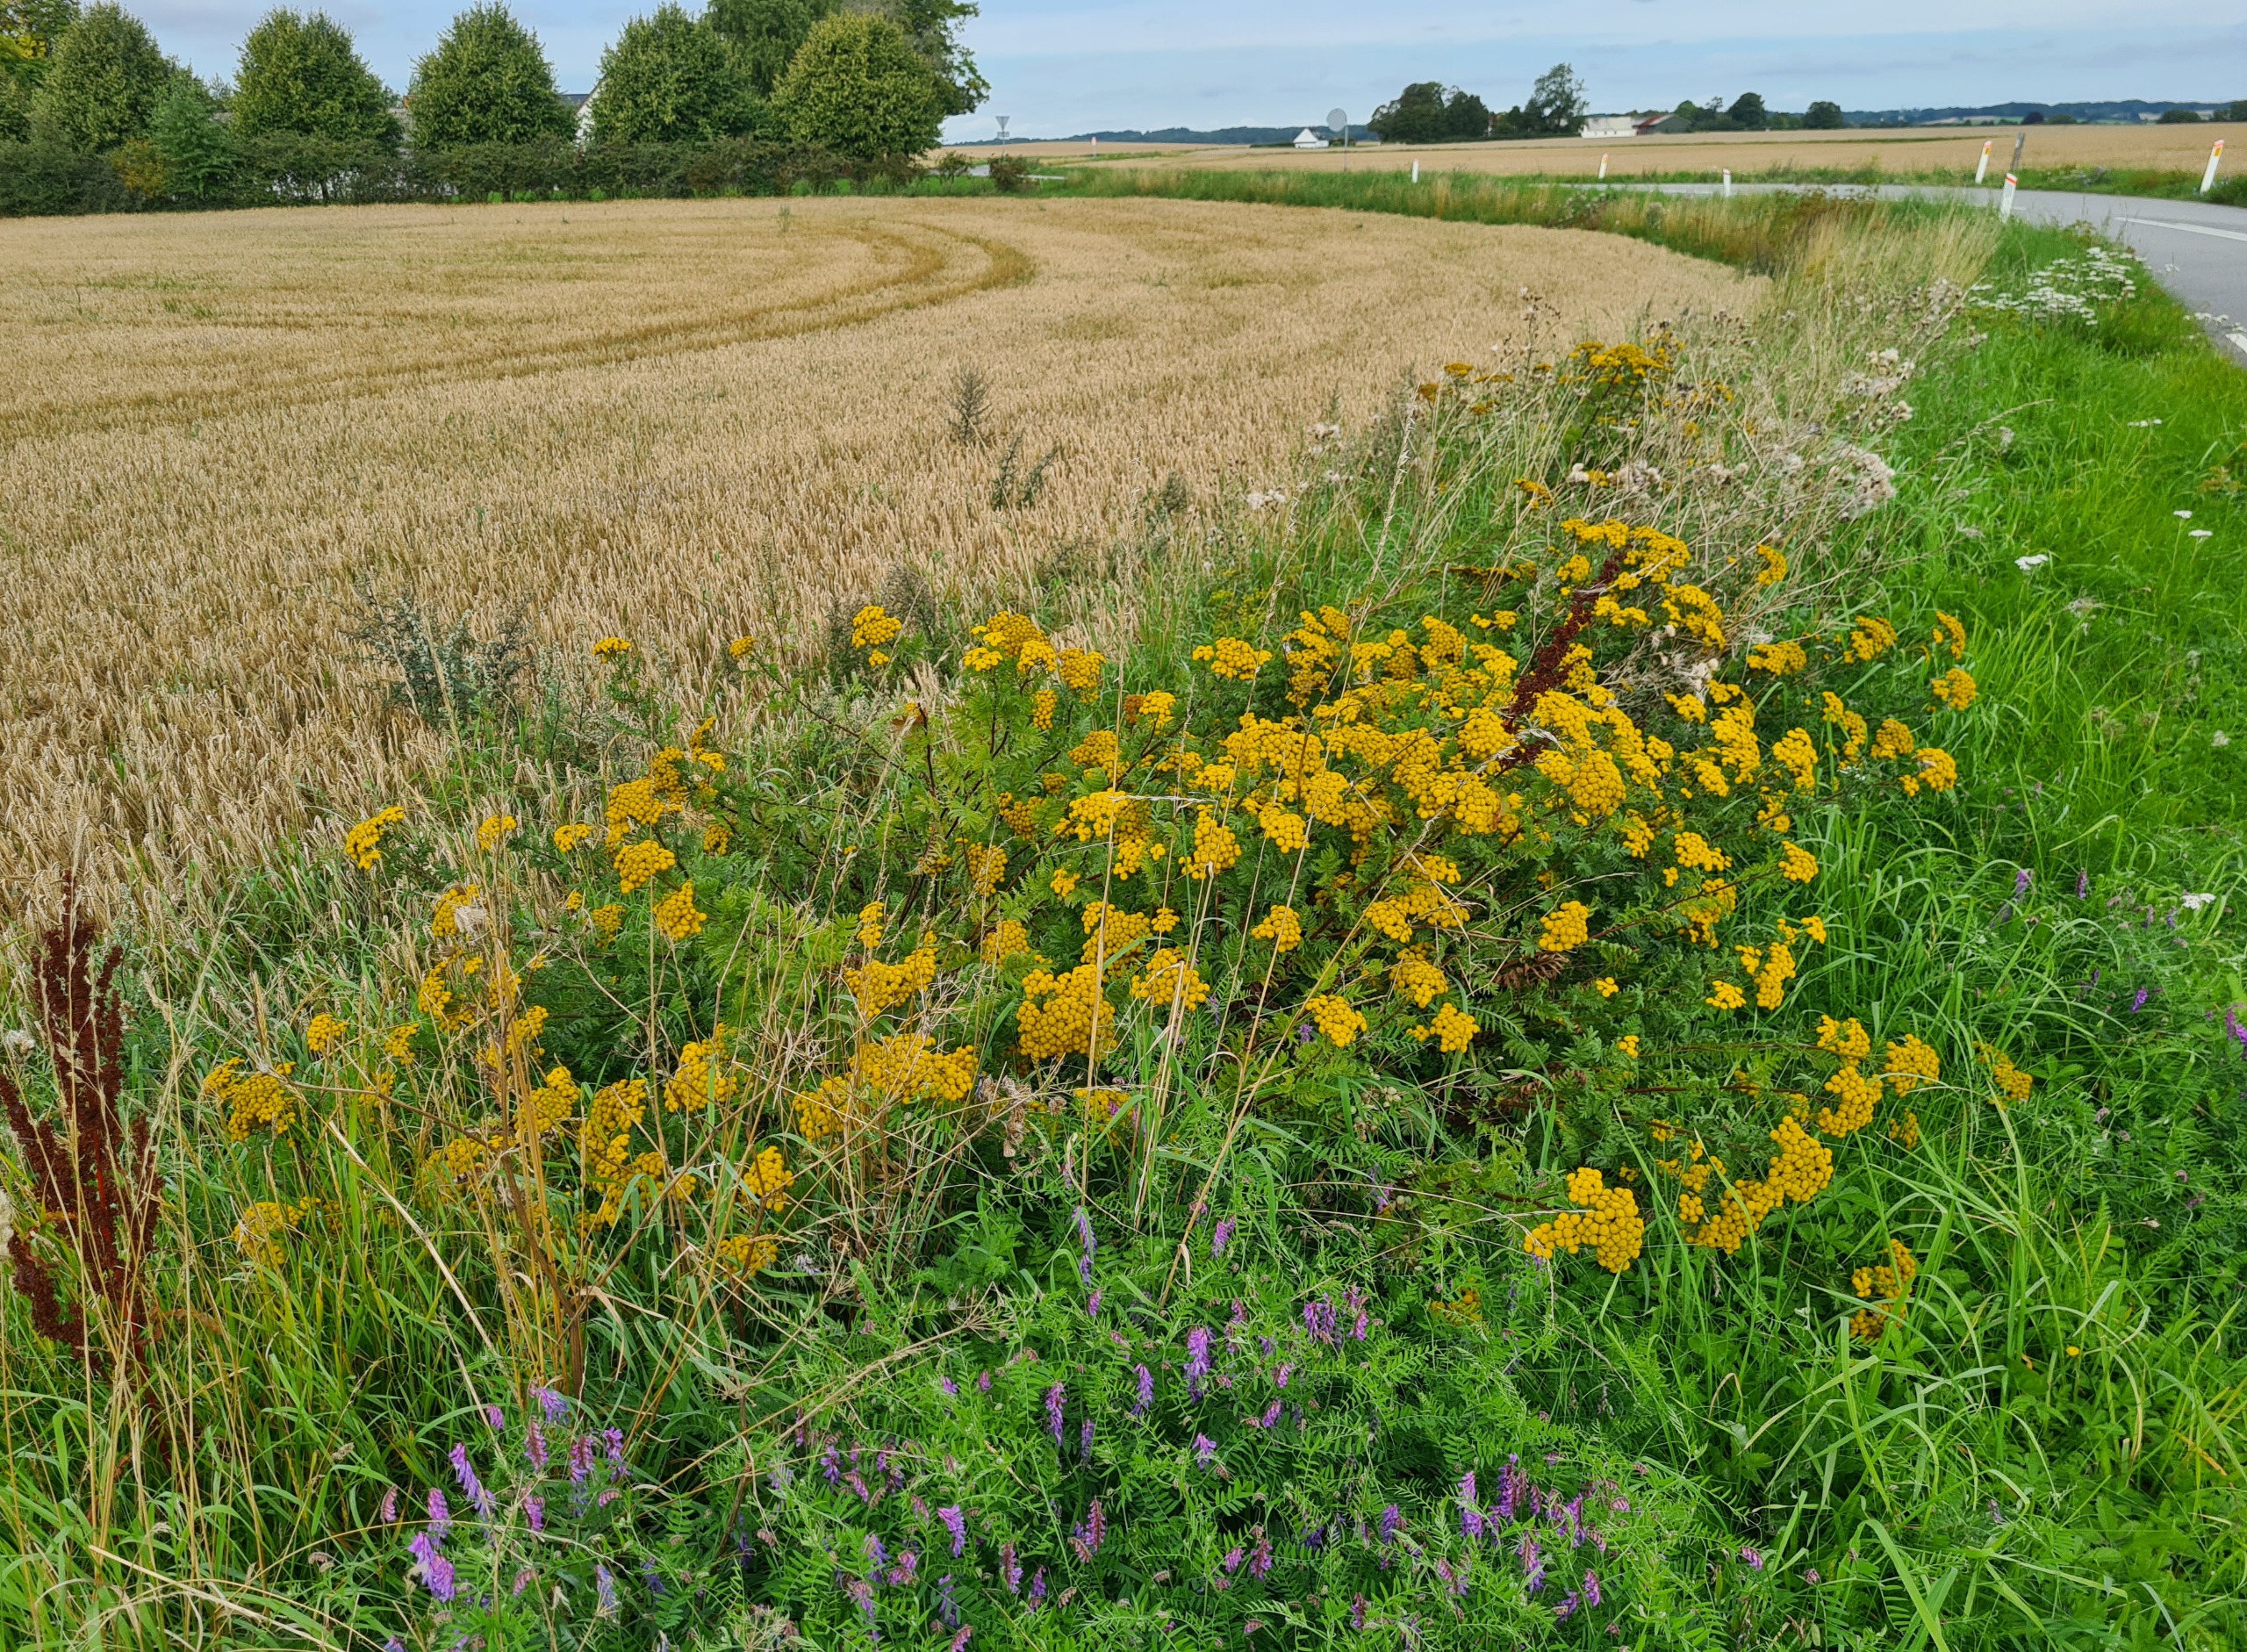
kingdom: Plantae
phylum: Tracheophyta
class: Magnoliopsida
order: Asterales
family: Asteraceae
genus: Tanacetum
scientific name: Tanacetum vulgare
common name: Rejnfan
